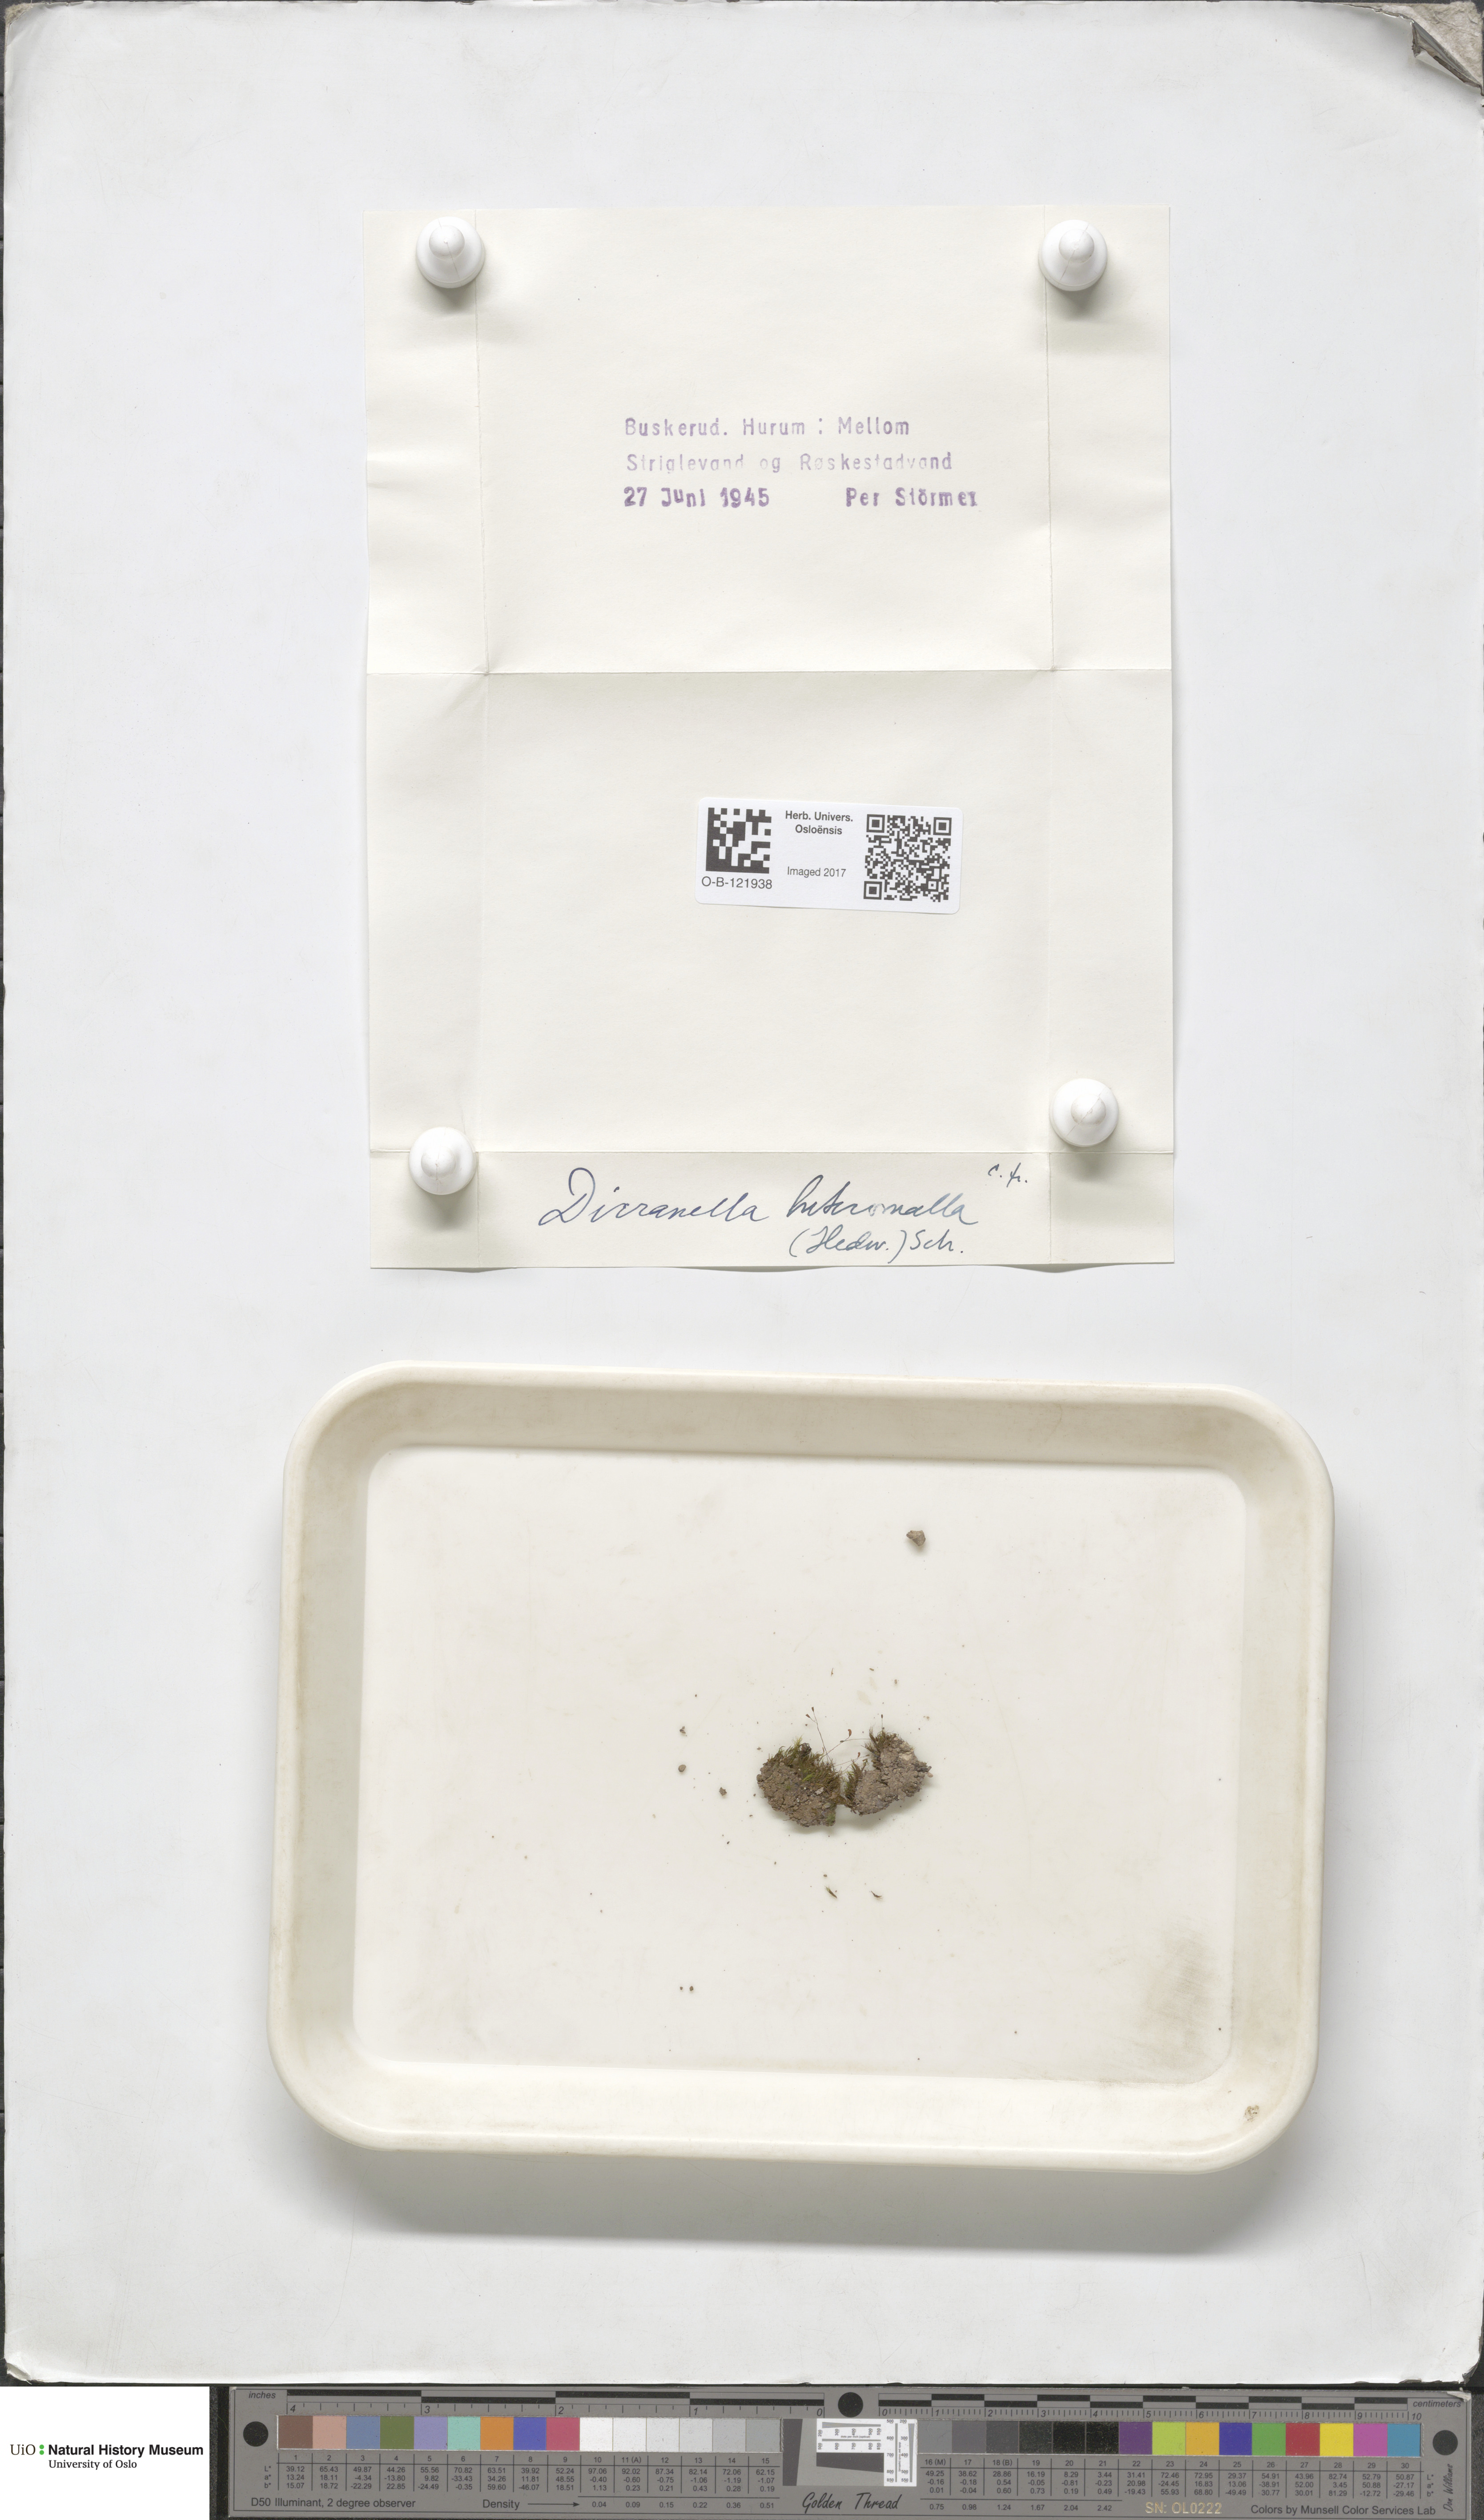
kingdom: Plantae
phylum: Bryophyta
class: Bryopsida
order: Dicranales
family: Dicranellaceae
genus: Dicranella
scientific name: Dicranella heteromalla
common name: Silky forklet moss
